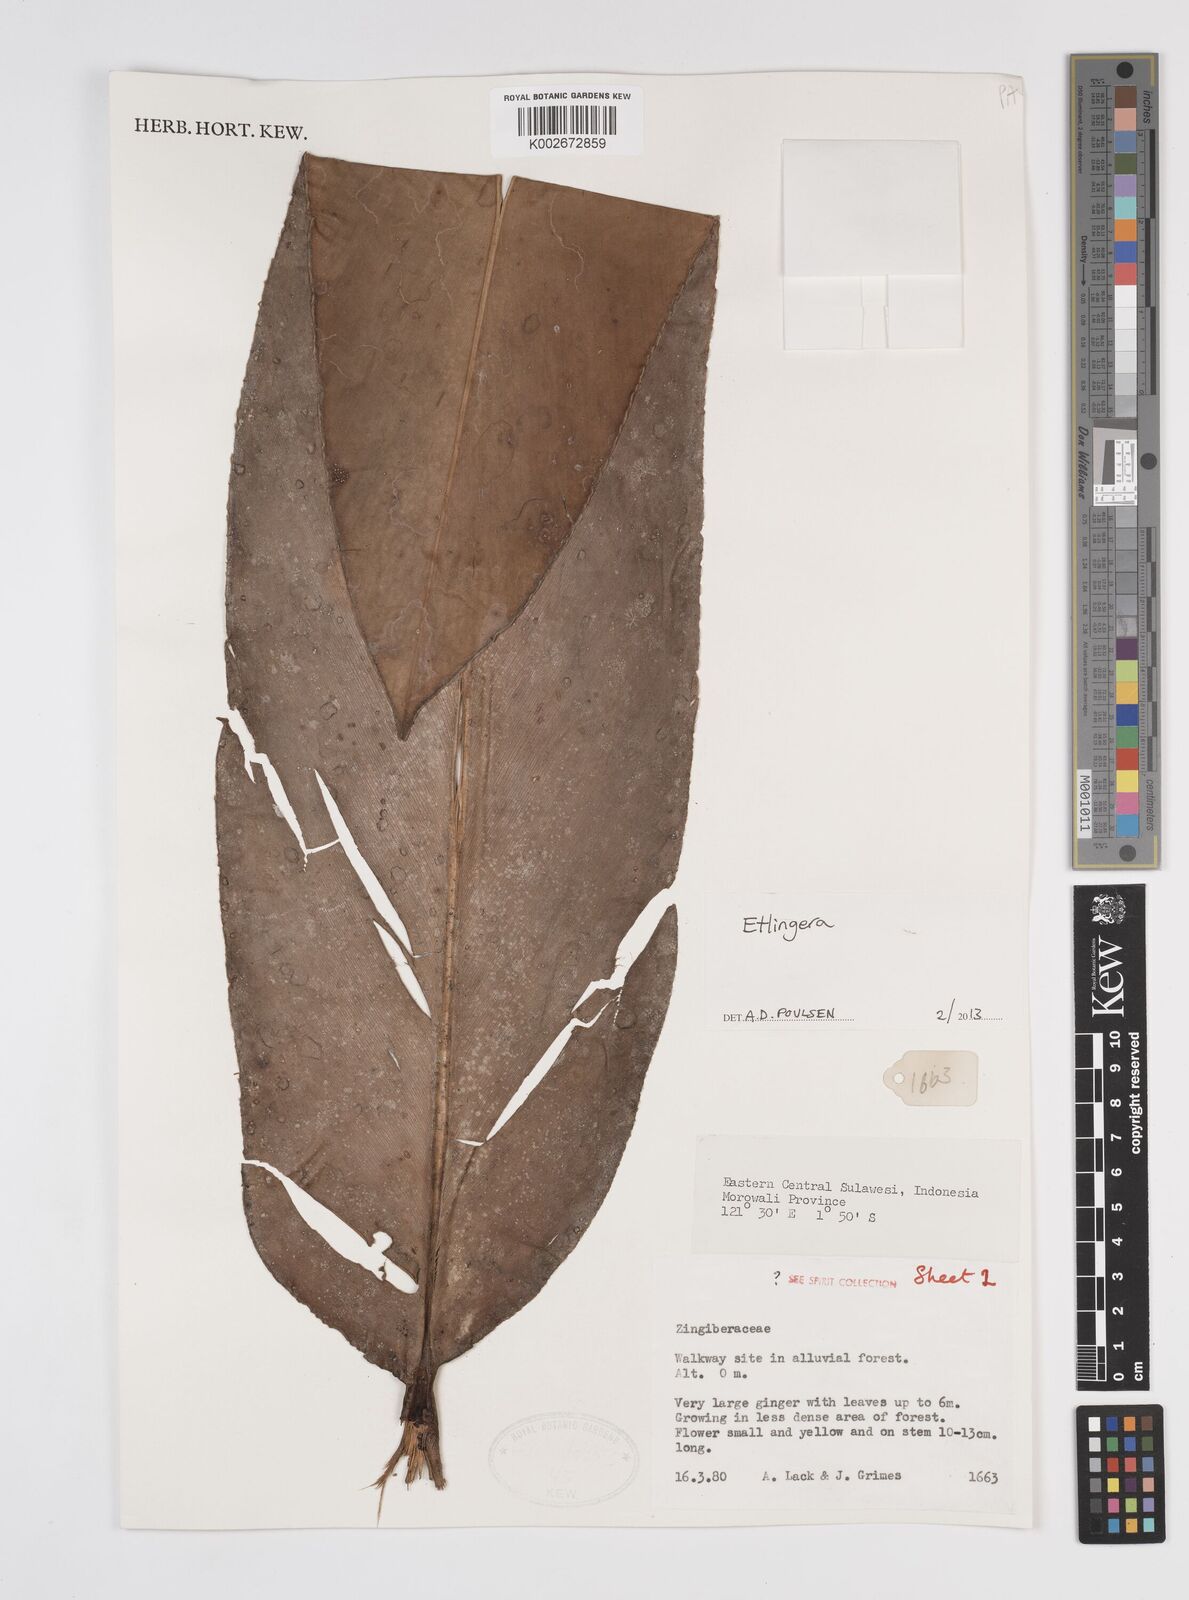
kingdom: Plantae
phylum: Tracheophyta
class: Liliopsida
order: Zingiberales
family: Zingiberaceae
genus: Etlingera
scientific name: Etlingera
